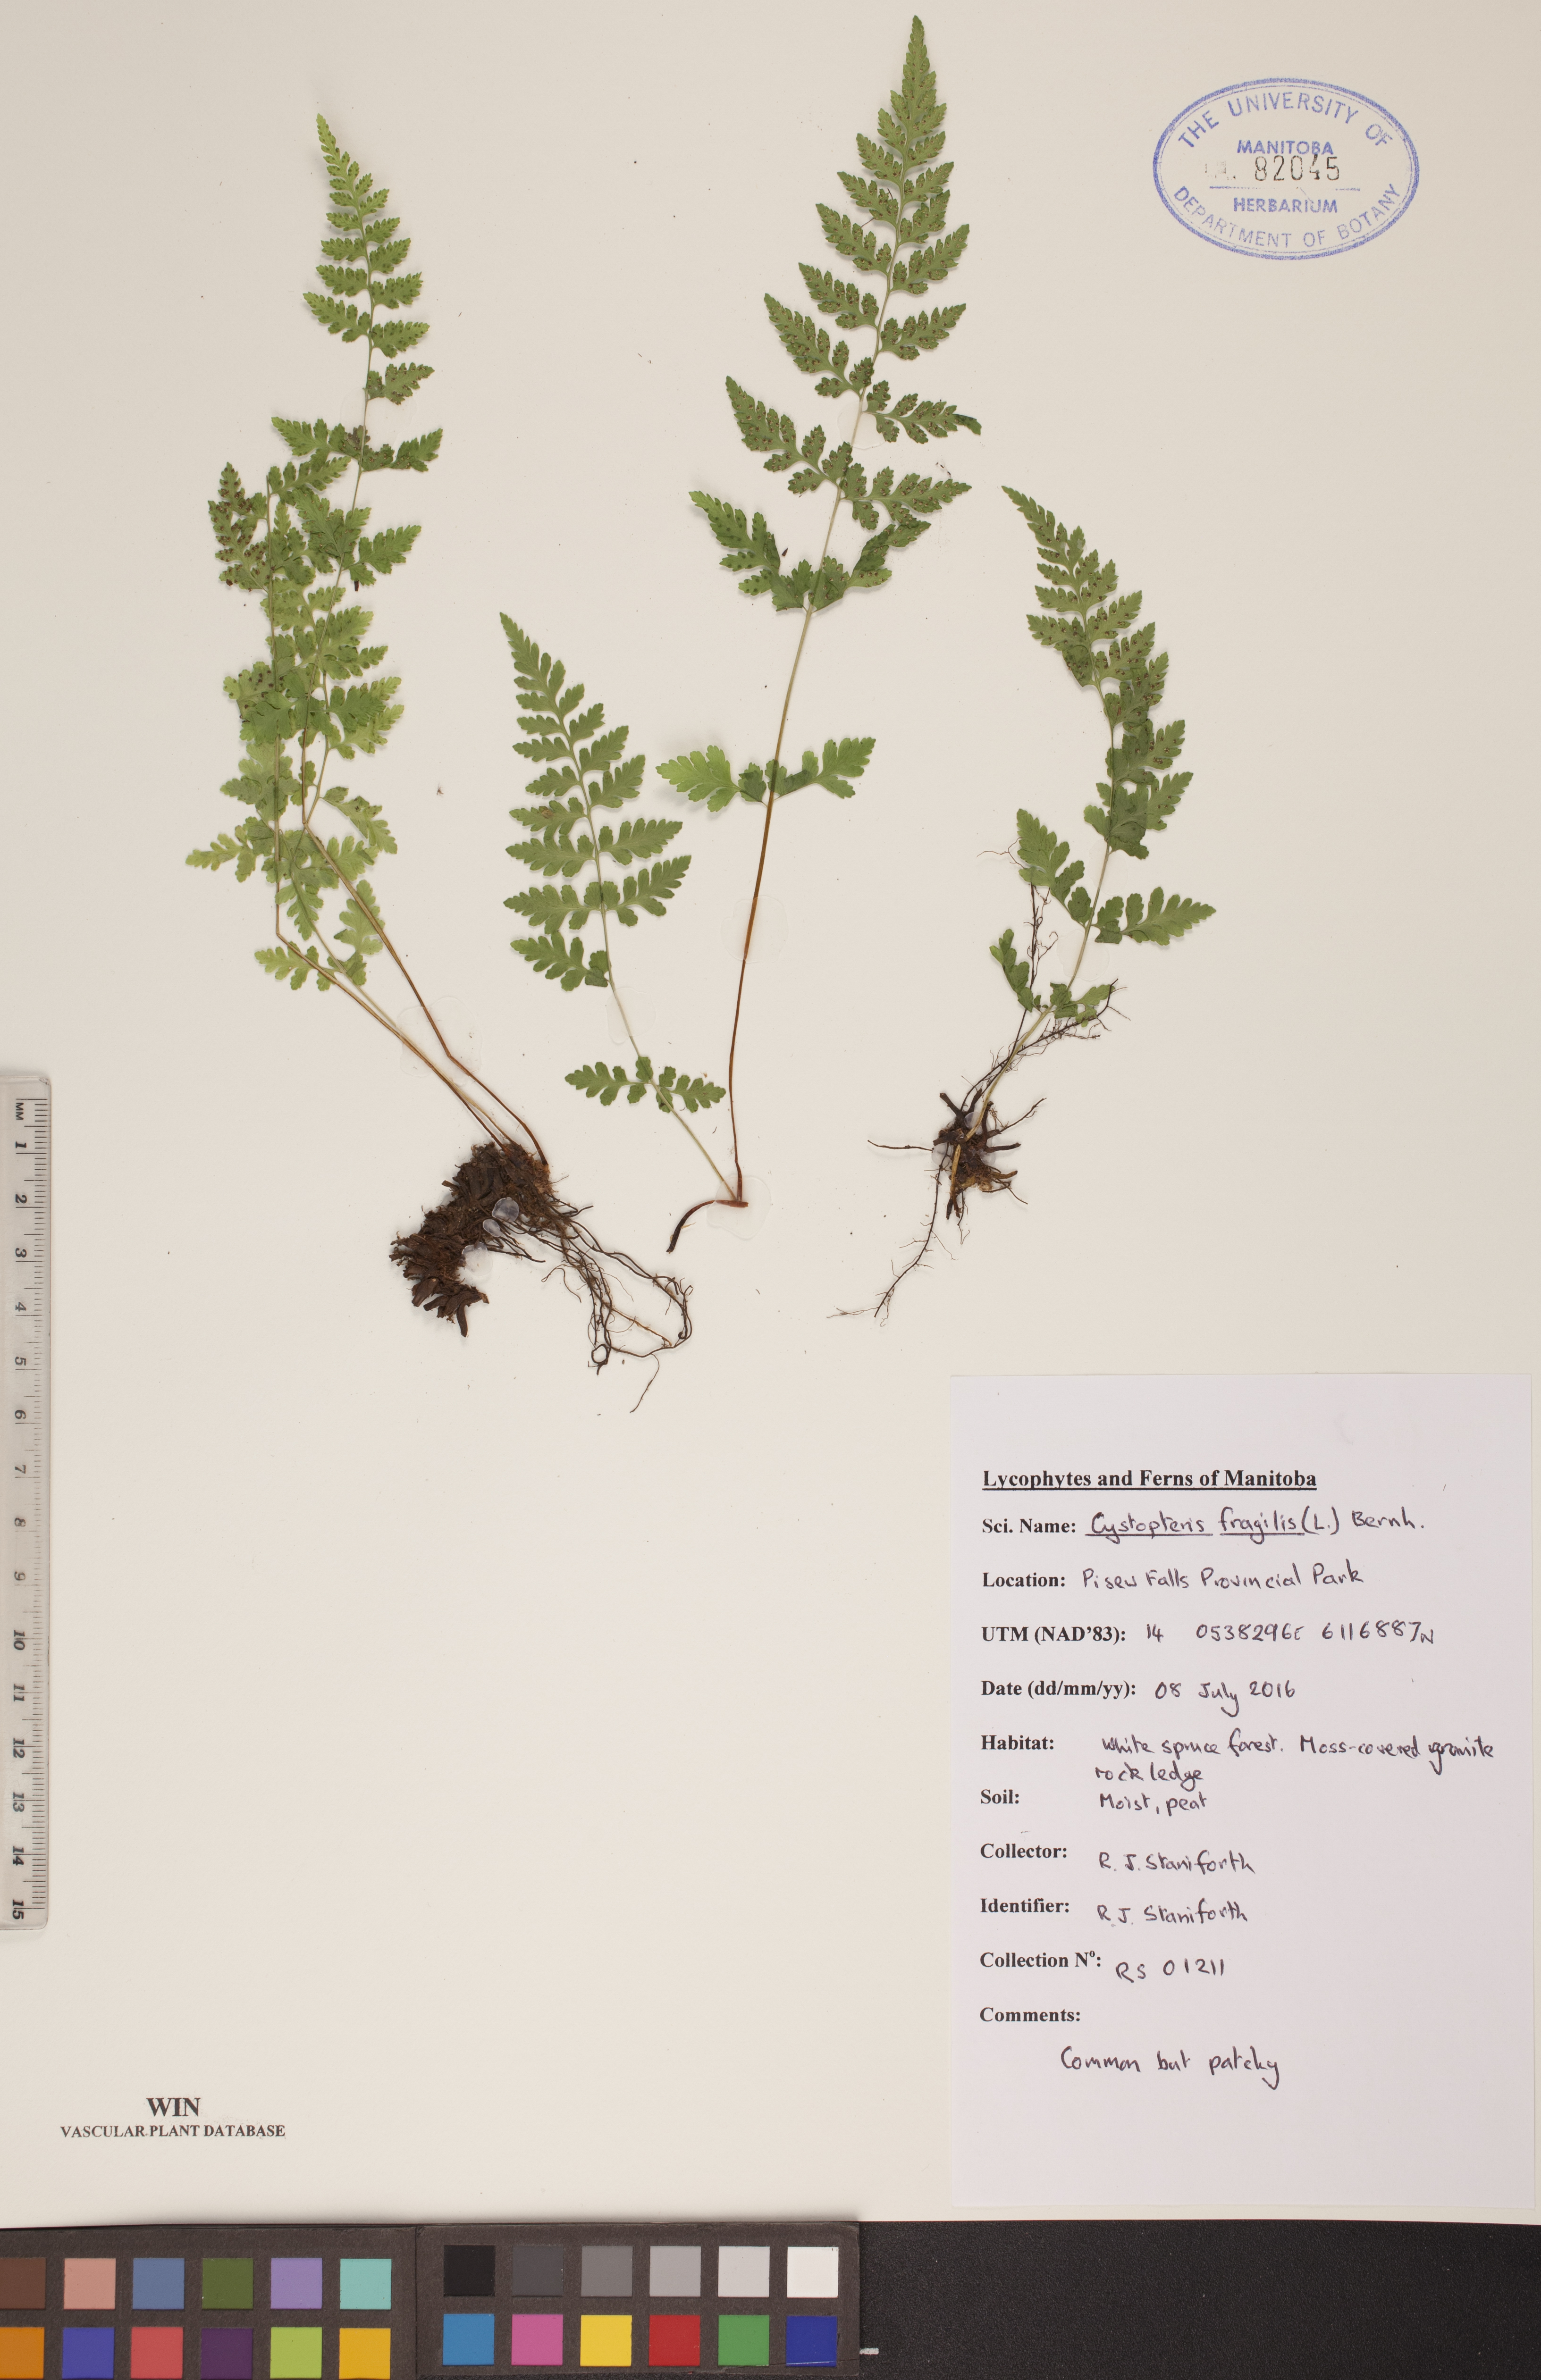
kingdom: Plantae
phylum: Tracheophyta
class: Polypodiopsida
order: Polypodiales
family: Cystopteridaceae
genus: Cystopteris
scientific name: Cystopteris fragilis
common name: Brittle bladder fern
